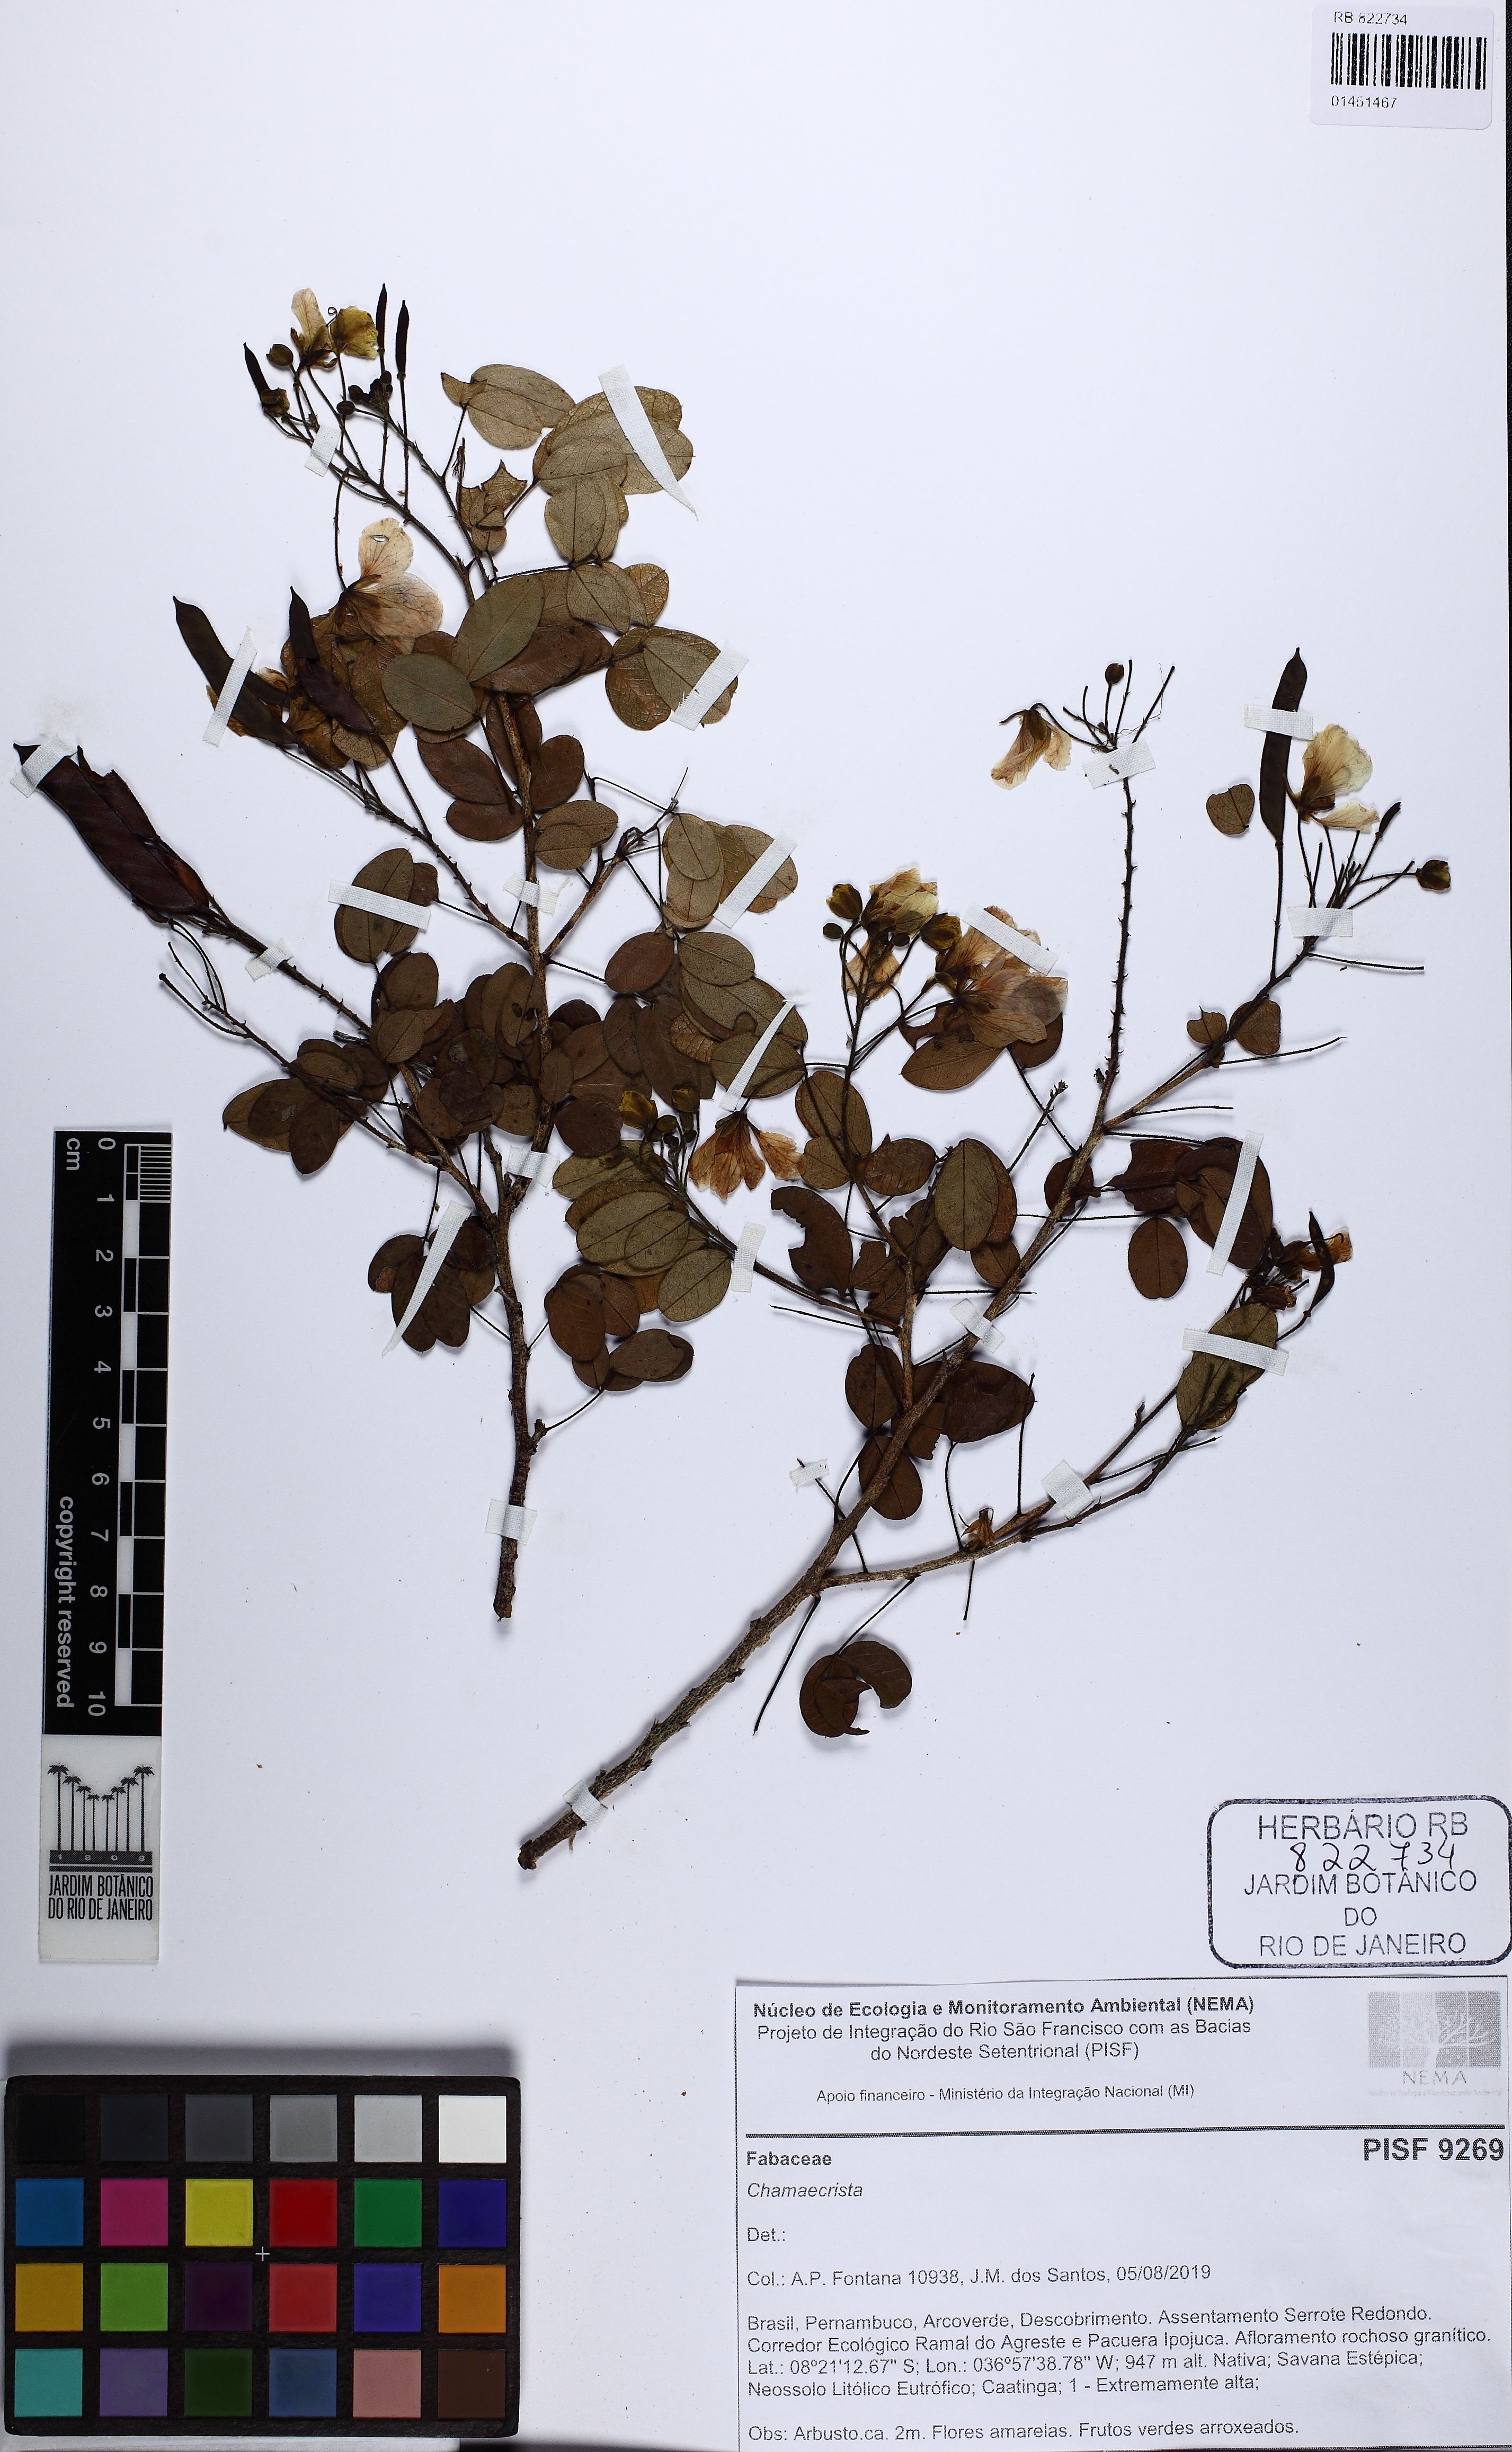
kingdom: Plantae
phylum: Tracheophyta
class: Magnoliopsida
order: Fabales
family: Fabaceae
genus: Chamaecrista
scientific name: Chamaecrista
